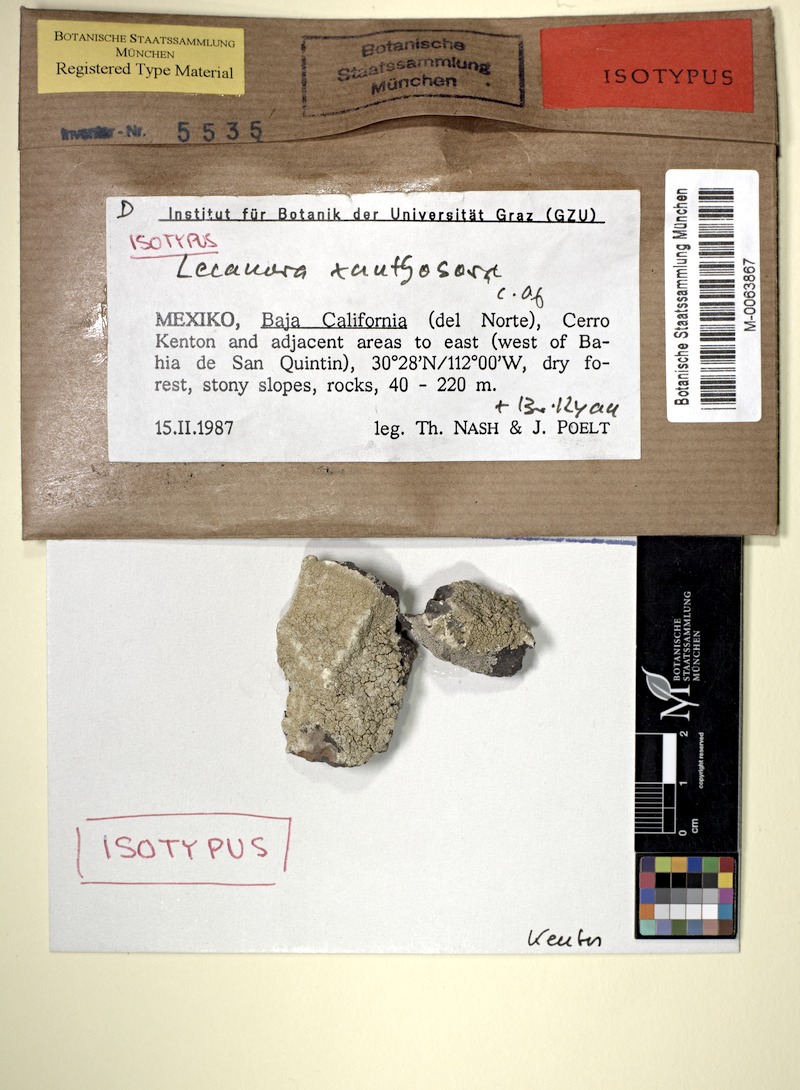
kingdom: Fungi
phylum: Ascomycota
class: Lecanoromycetes
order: Lecanorales
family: Lecanoraceae
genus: Lecanora
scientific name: Lecanora xanthosora
